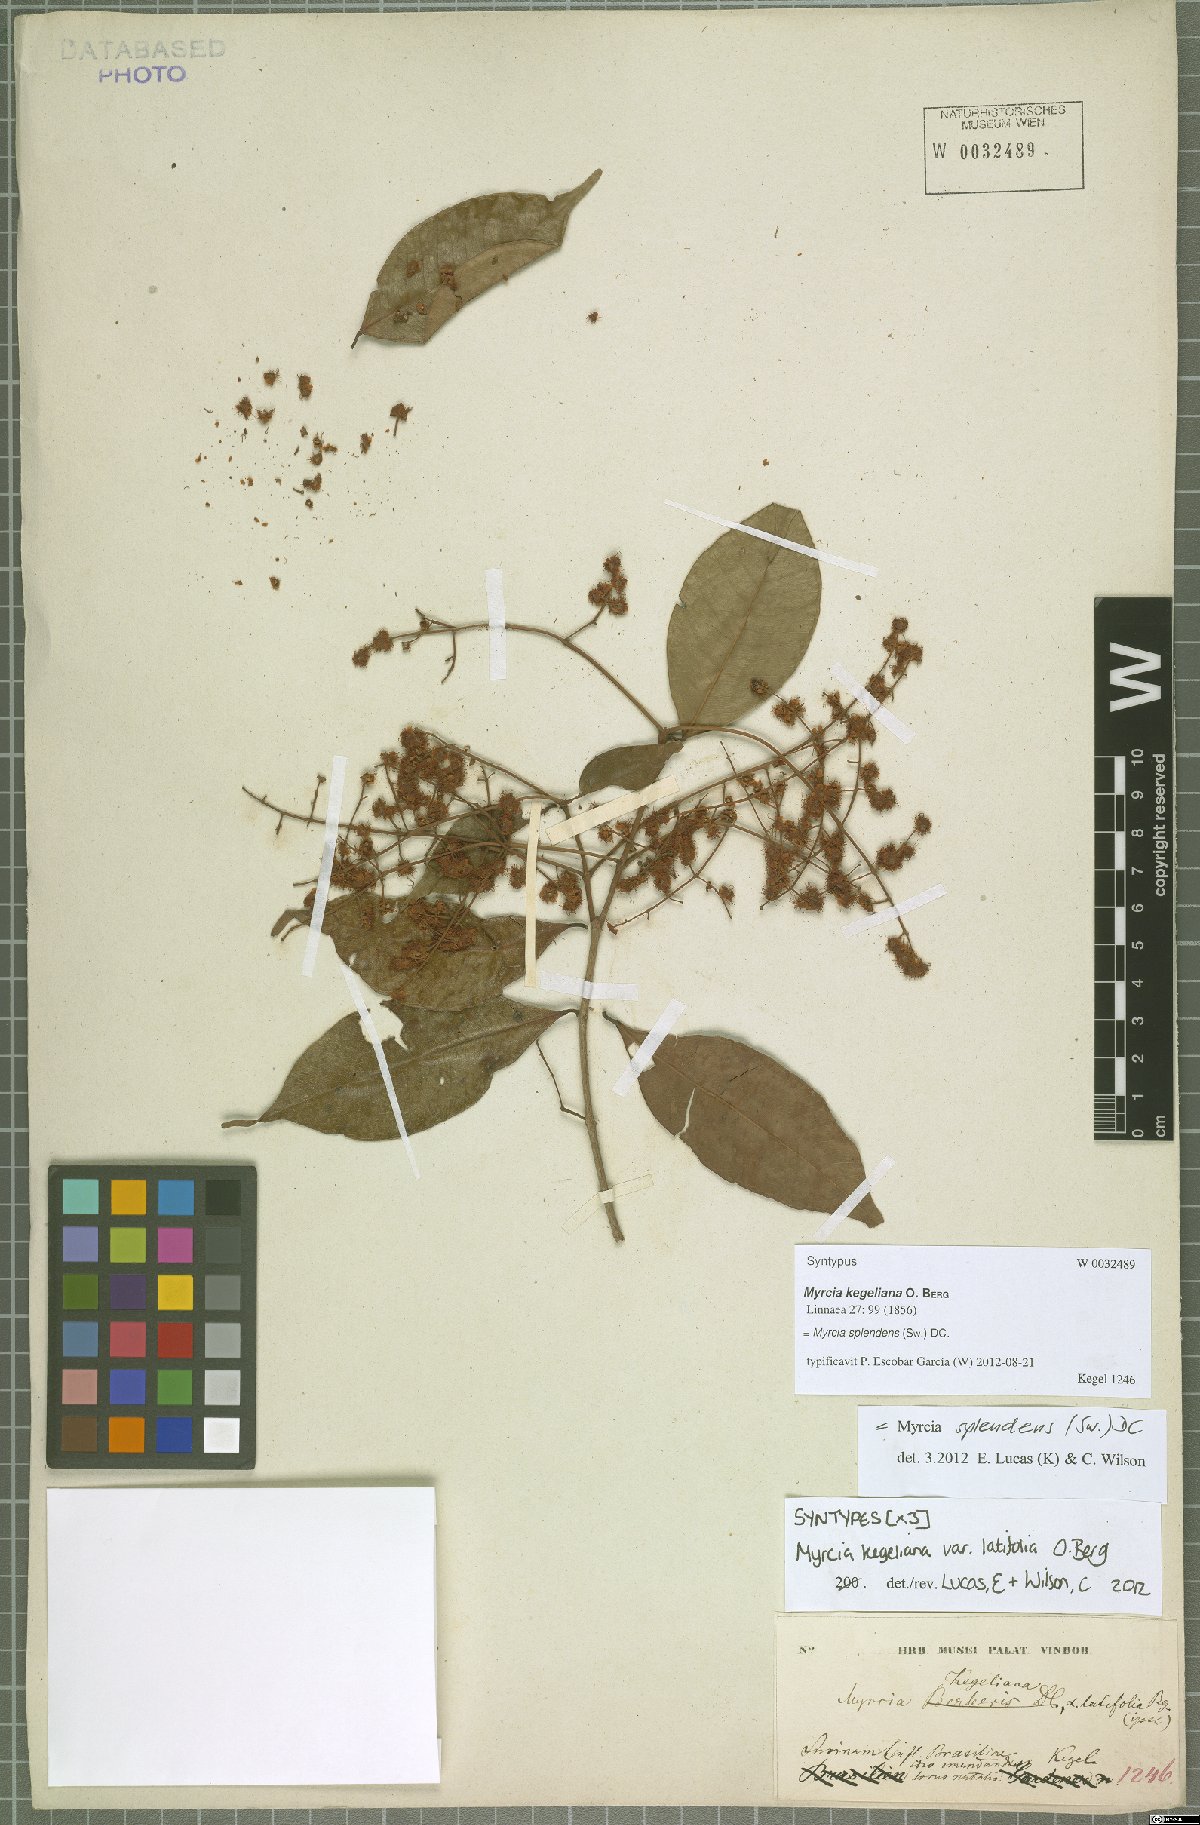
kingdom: Plantae
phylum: Tracheophyta
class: Magnoliopsida
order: Myrtales
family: Myrtaceae
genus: Myrcia
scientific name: Myrcia splendens
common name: Surinam cherry
